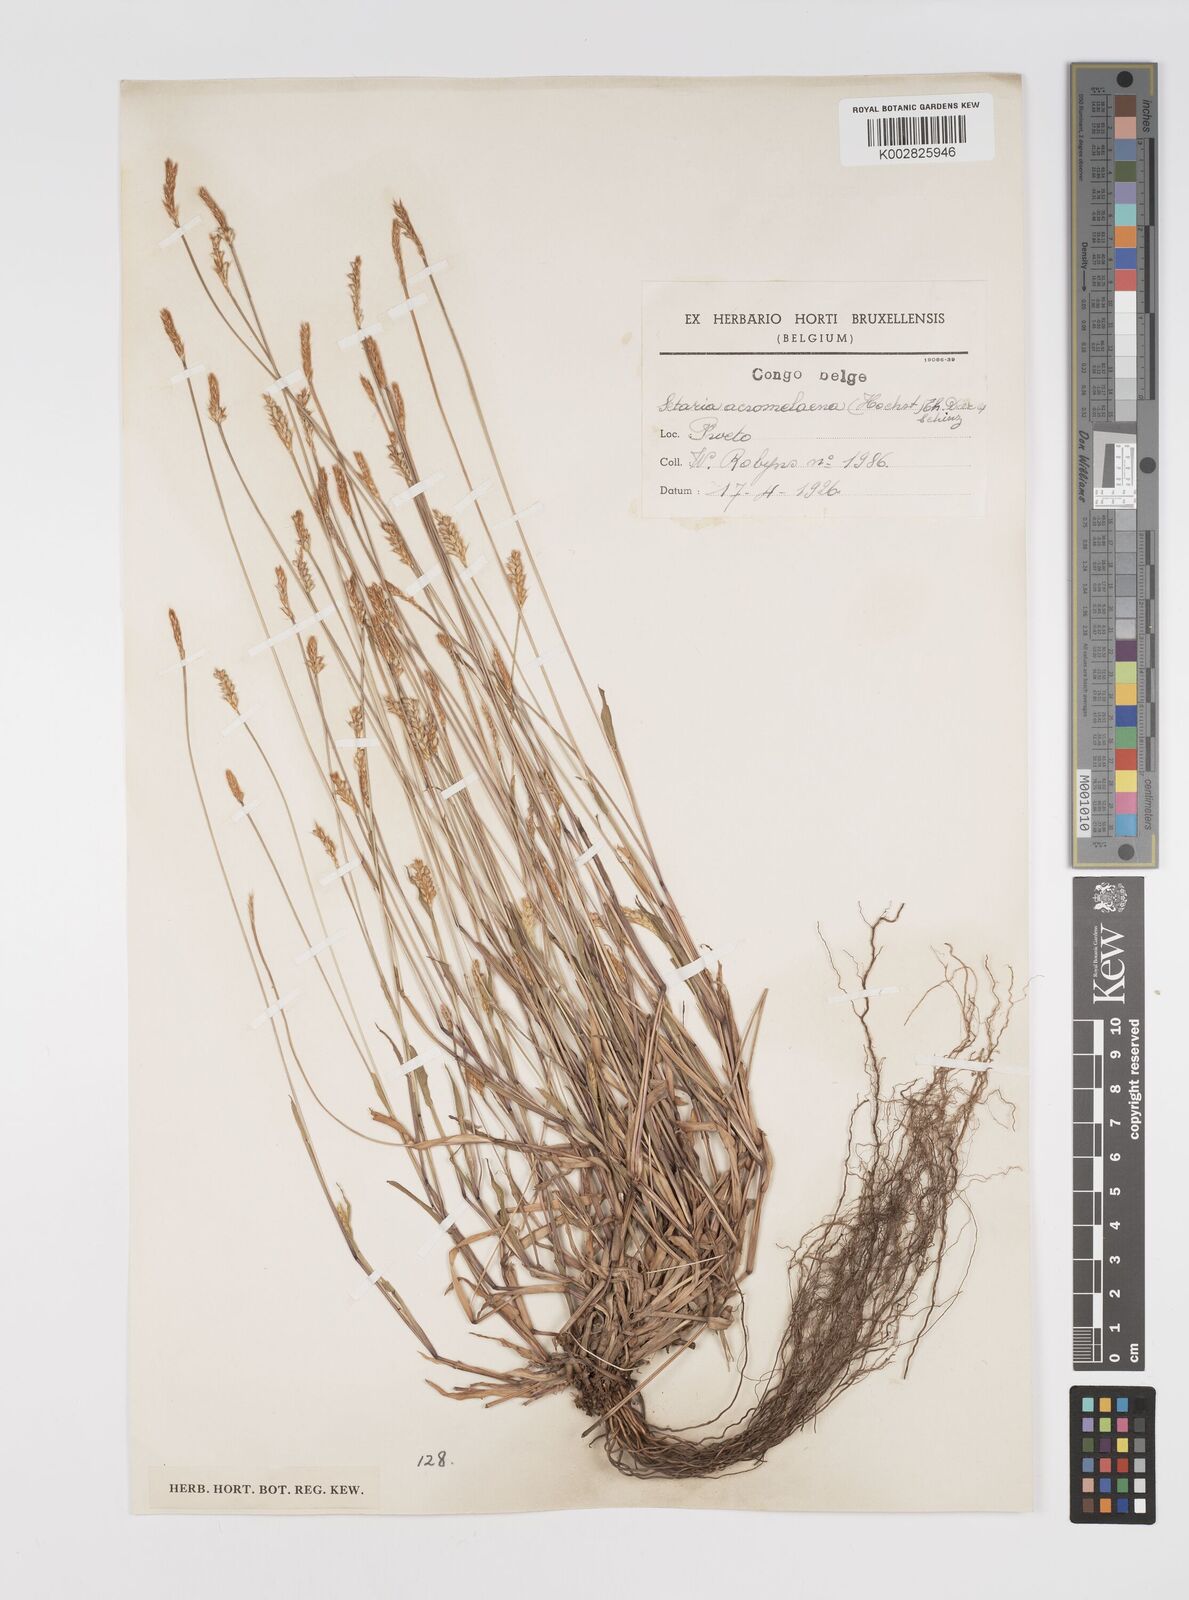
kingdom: Plantae
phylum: Tracheophyta
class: Liliopsida
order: Poales
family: Poaceae
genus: Setaria
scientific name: Setaria pumila
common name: Yellow bristle-grass
